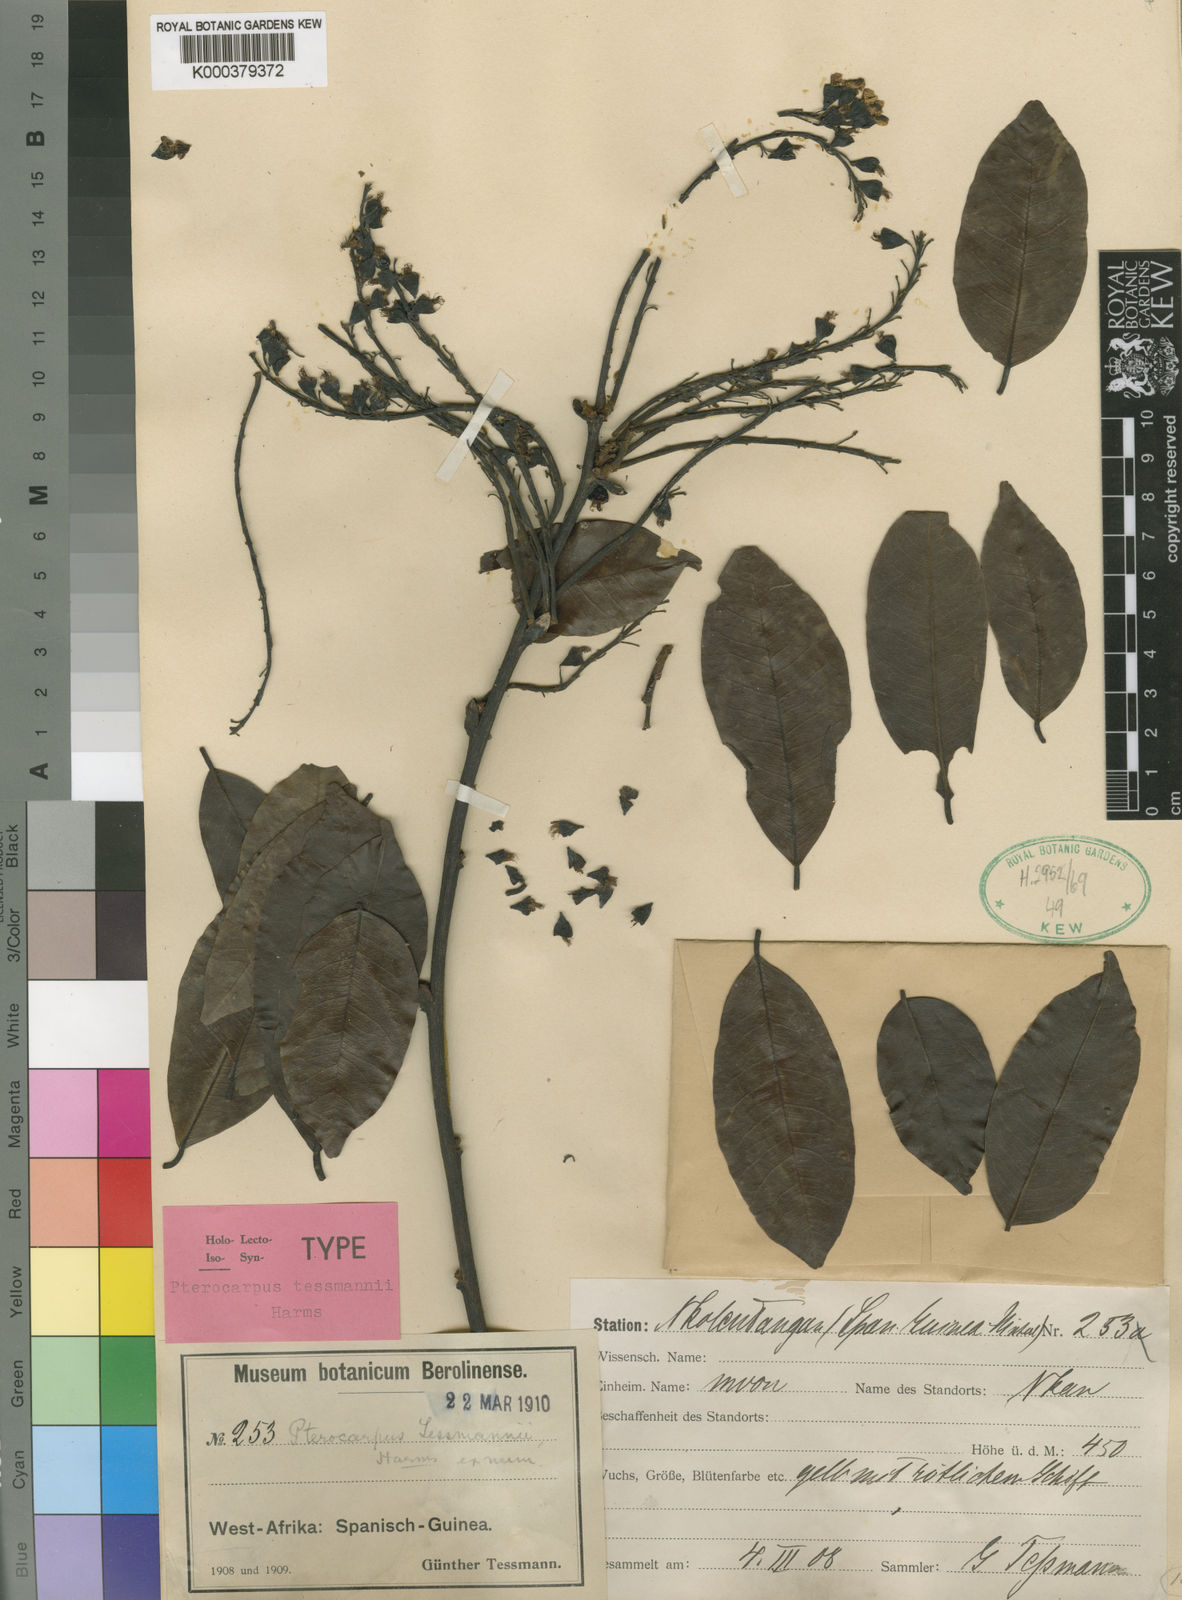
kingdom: Plantae
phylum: Tracheophyta
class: Magnoliopsida
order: Fabales
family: Fabaceae
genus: Pterocarpus
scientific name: Pterocarpus tessmannii
